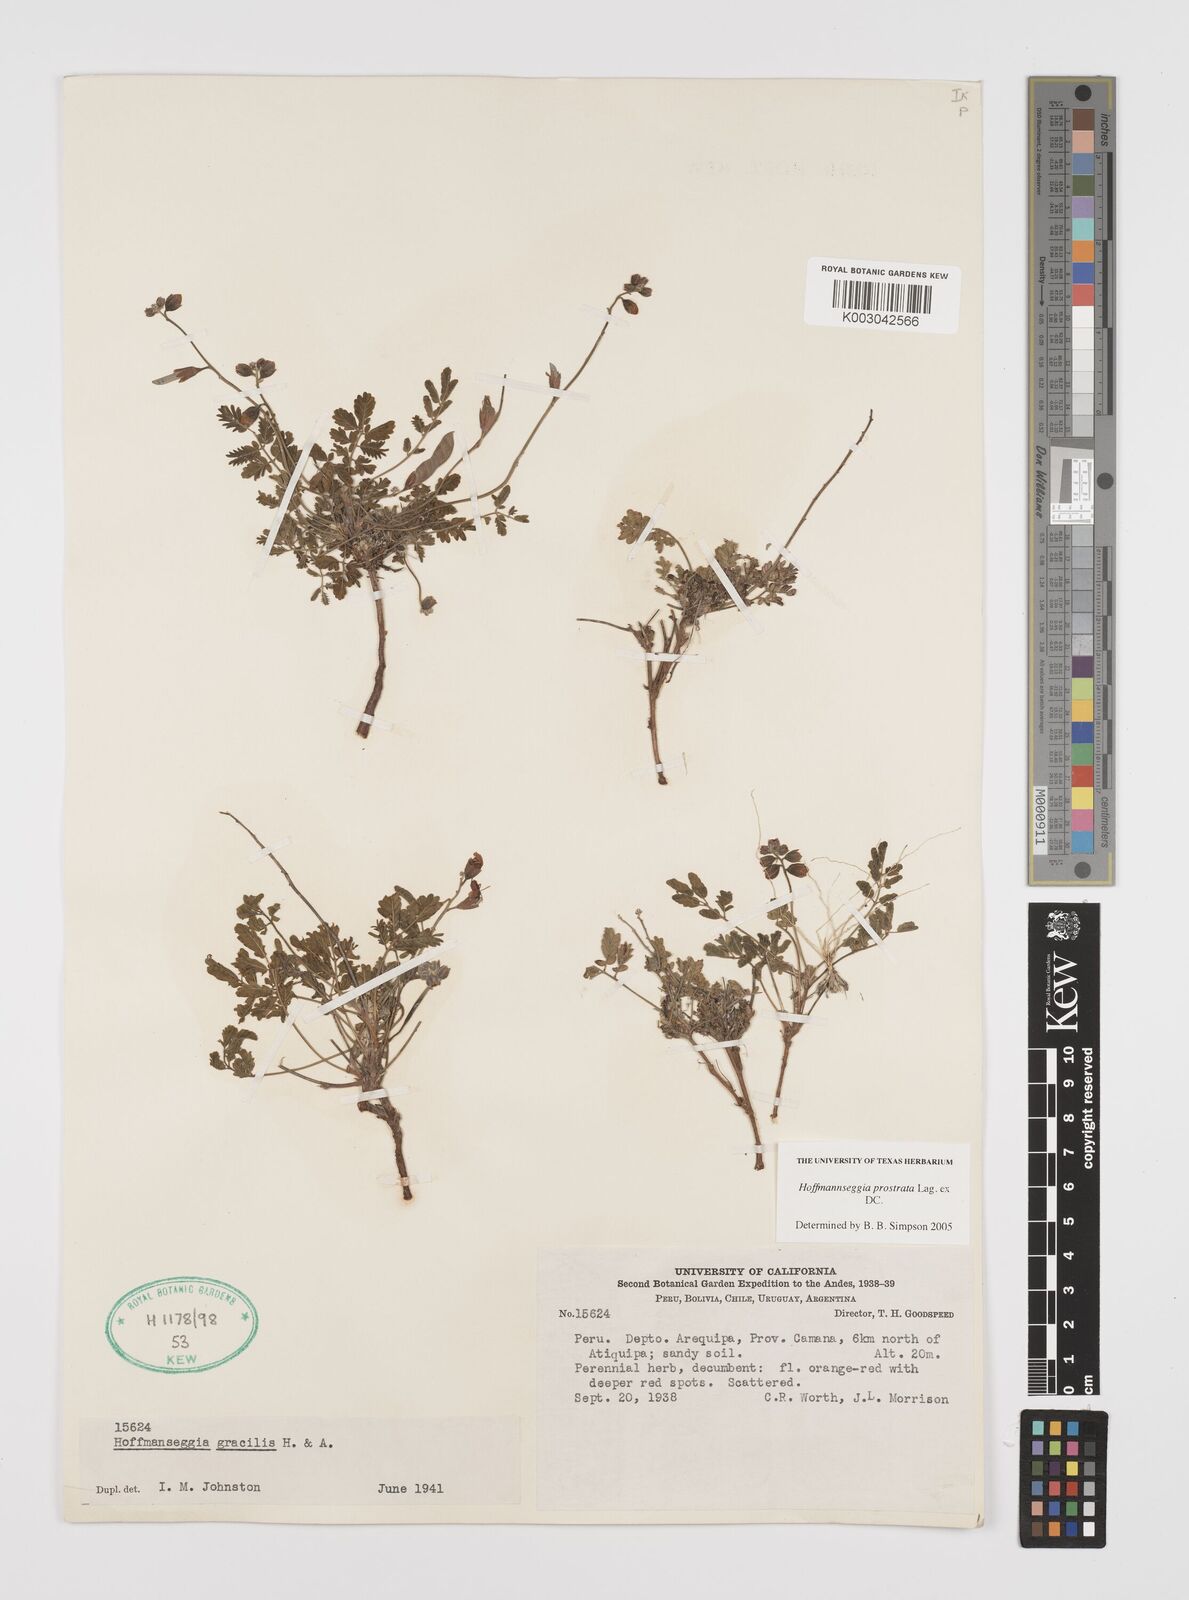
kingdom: Plantae
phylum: Tracheophyta
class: Magnoliopsida
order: Fabales
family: Fabaceae
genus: Hoffmannseggia
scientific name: Hoffmannseggia prostrata
